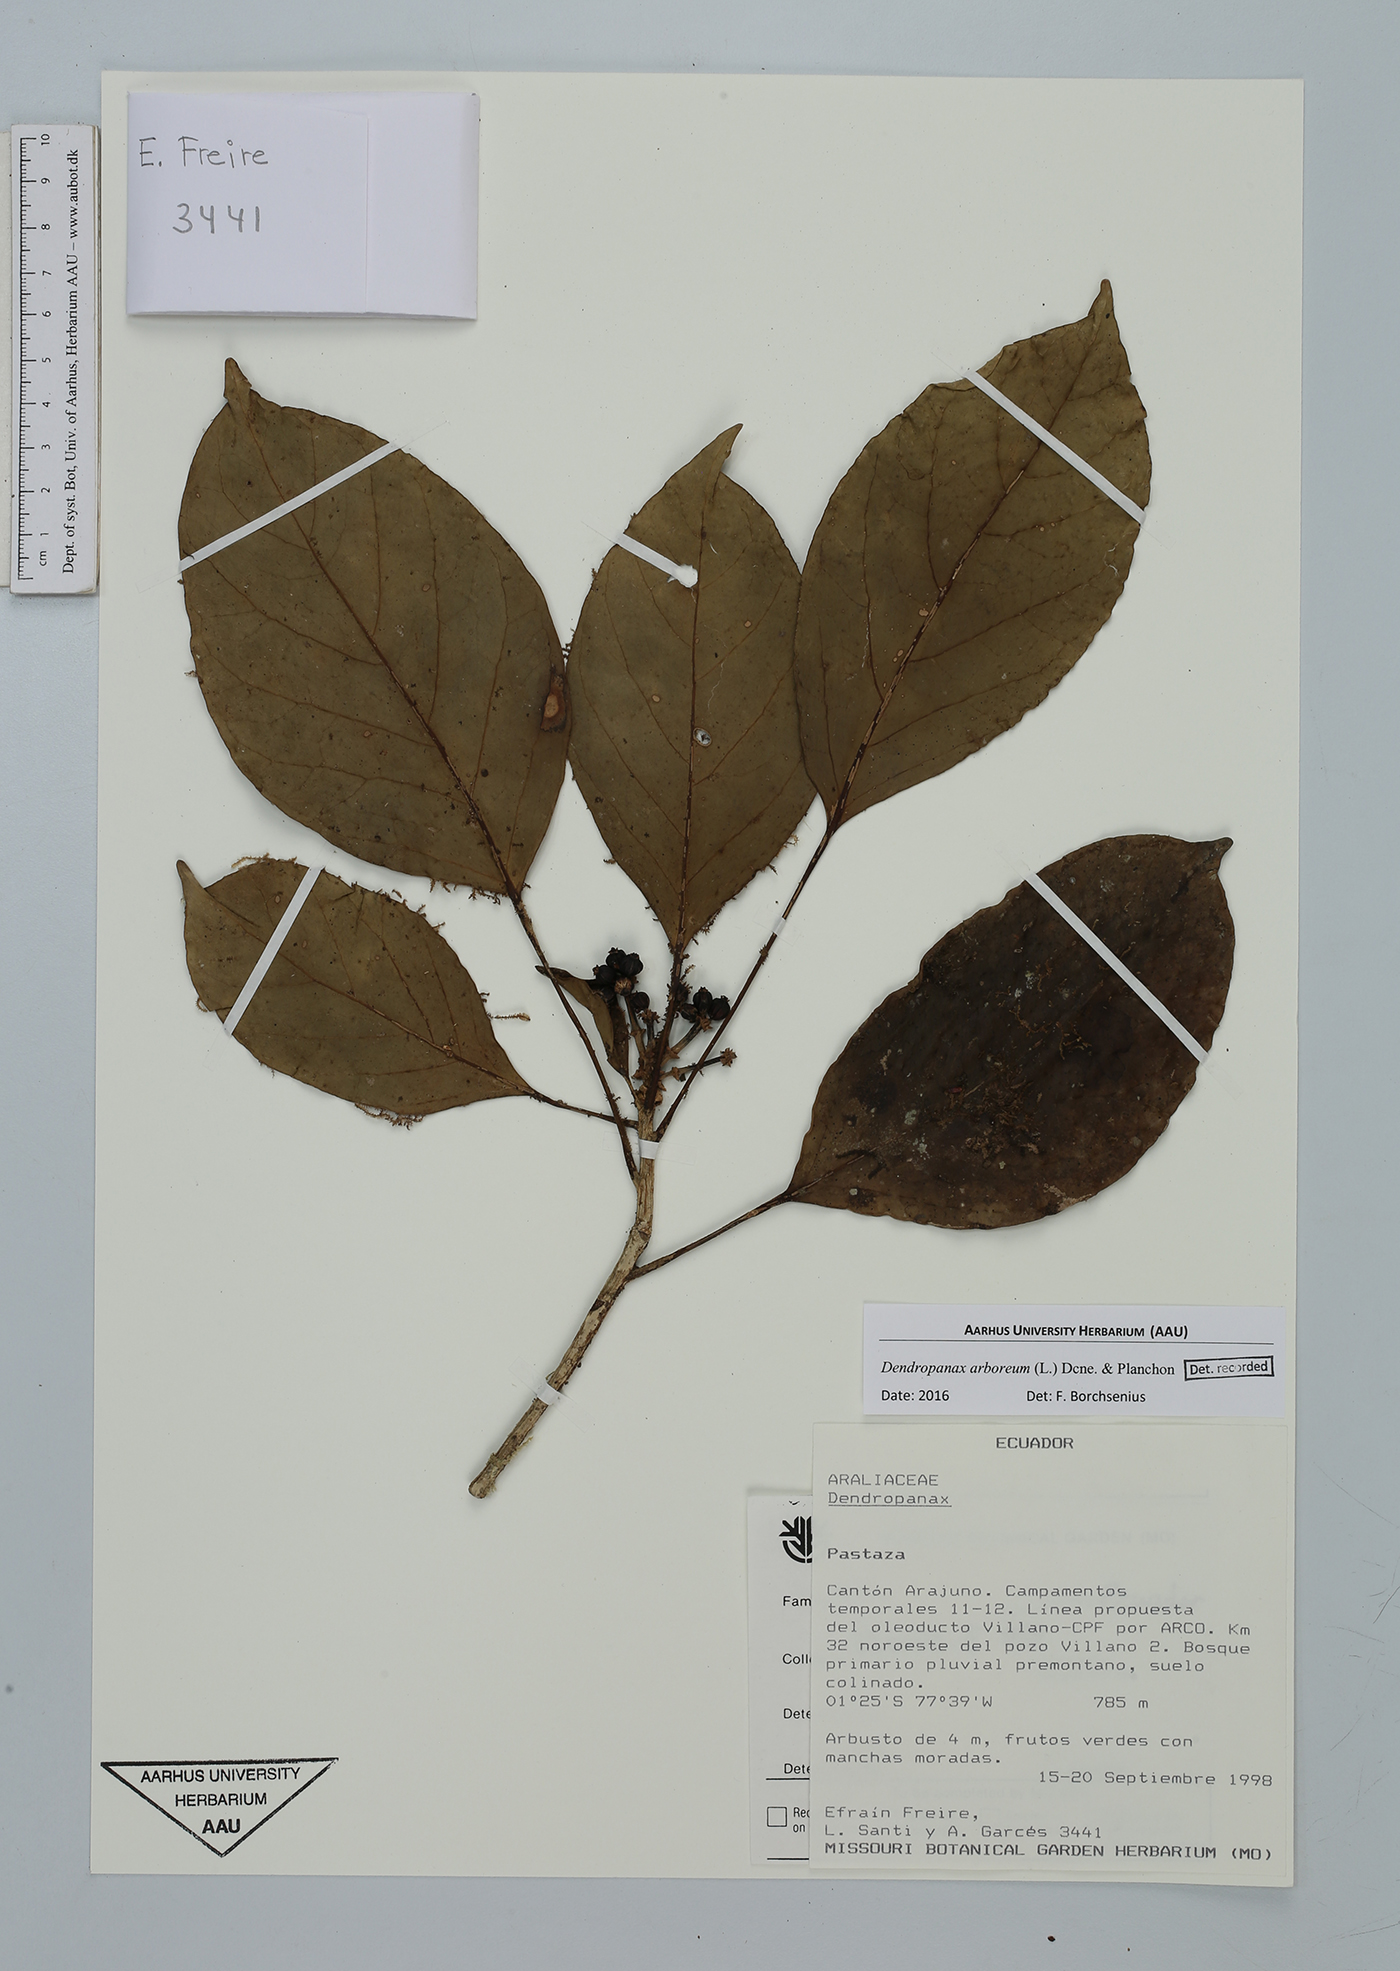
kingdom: Plantae
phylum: Tracheophyta
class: Magnoliopsida
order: Apiales
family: Araliaceae
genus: Dendropanax
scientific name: Dendropanax arboreus
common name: Potato-wood
